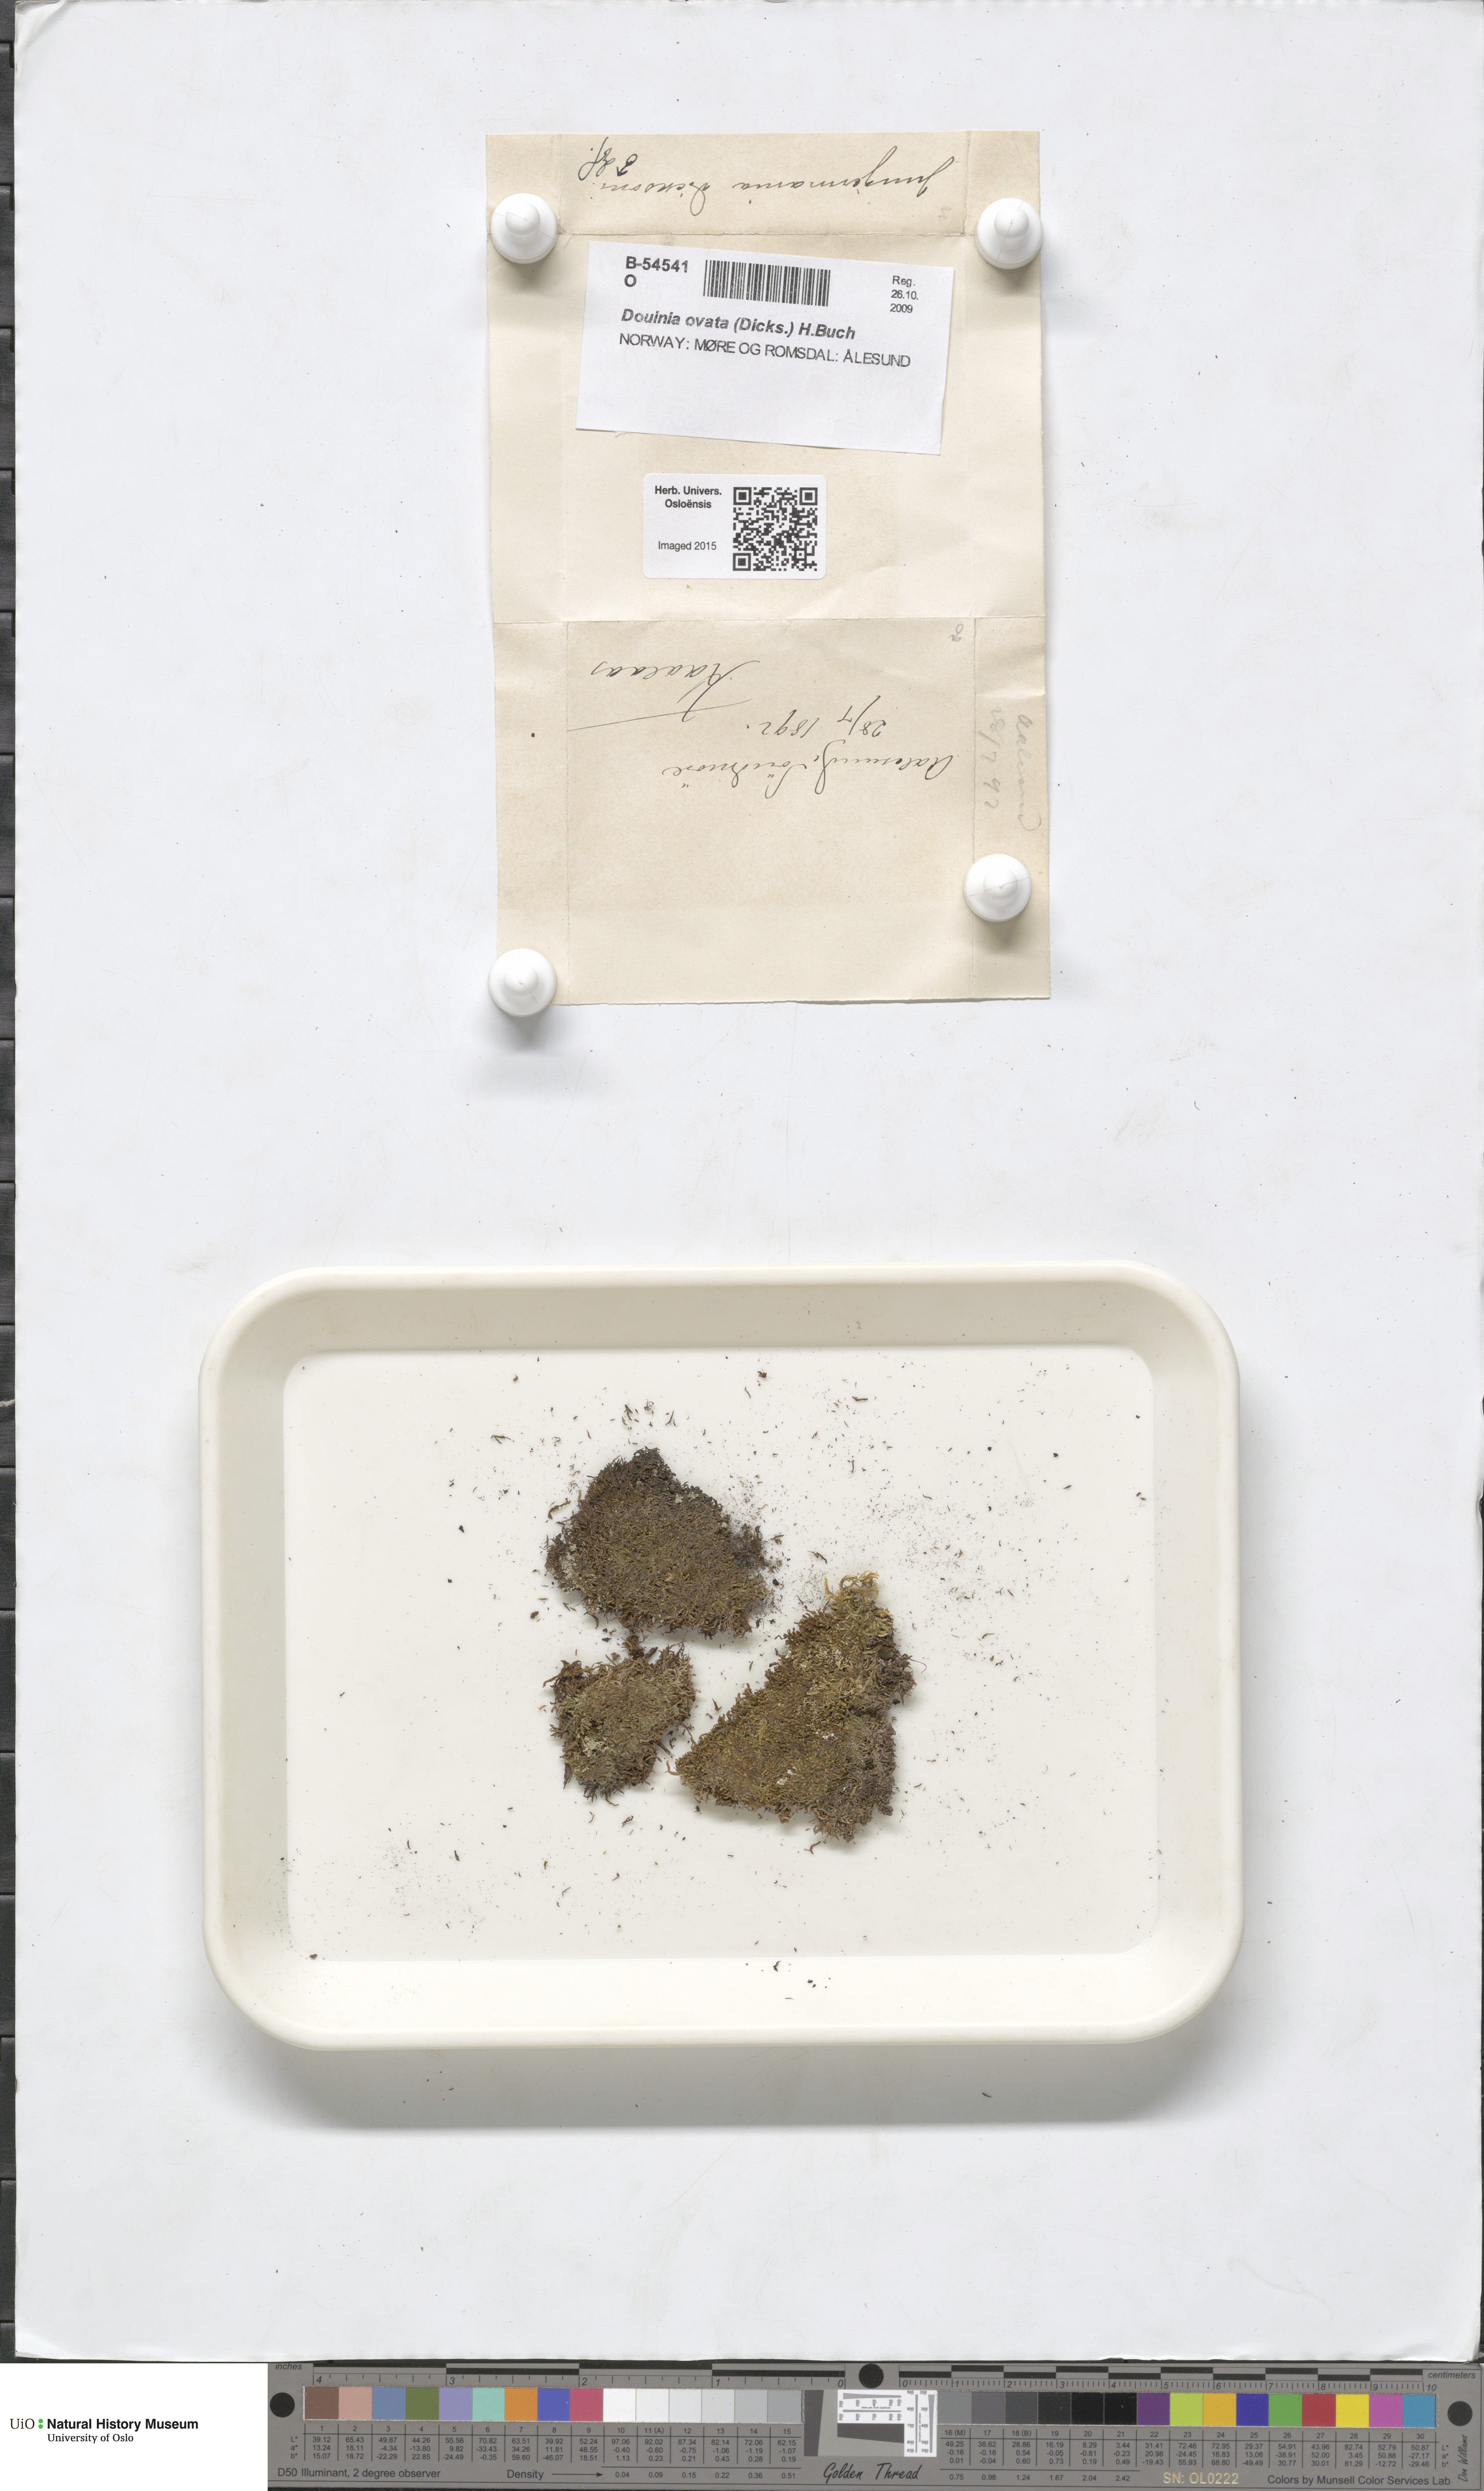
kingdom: Plantae
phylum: Marchantiophyta
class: Jungermanniopsida
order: Jungermanniales
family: Scapaniaceae
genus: Douinia
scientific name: Douinia ovata
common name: Waxy earwort
